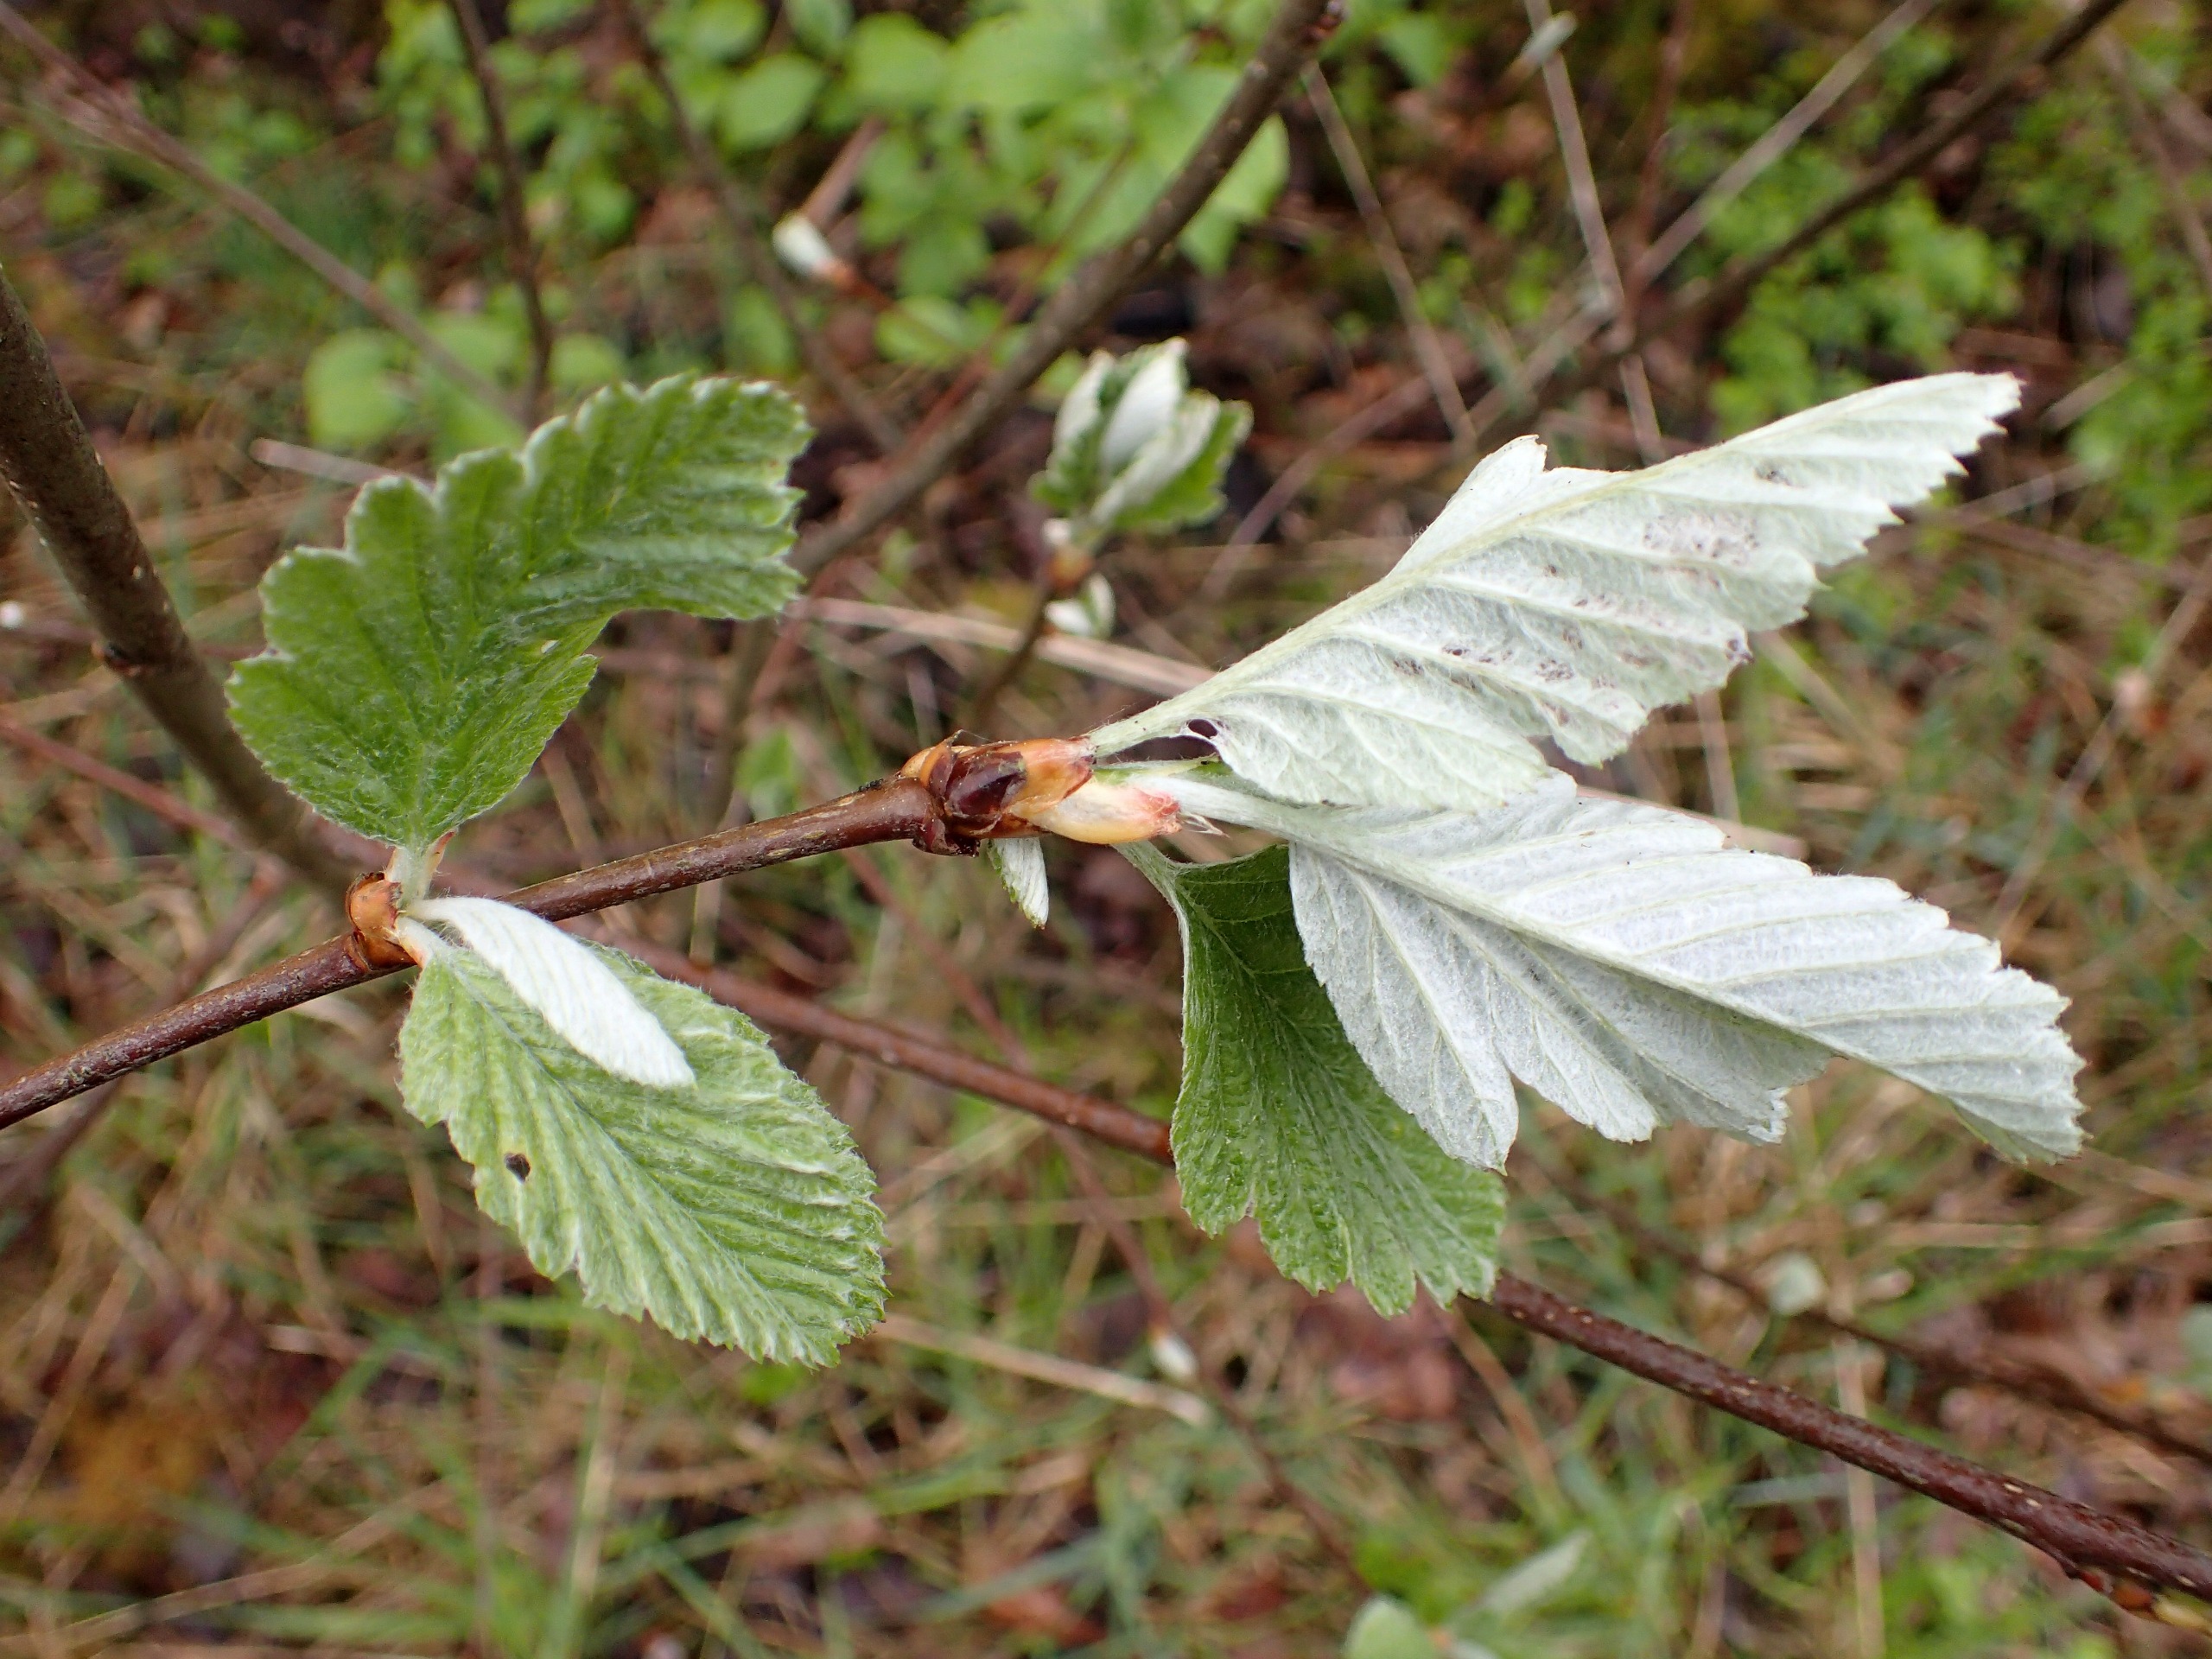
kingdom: Plantae
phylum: Tracheophyta
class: Magnoliopsida
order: Rosales
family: Rosaceae
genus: Scandosorbus
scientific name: Scandosorbus intermedia
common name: Selje-røn
